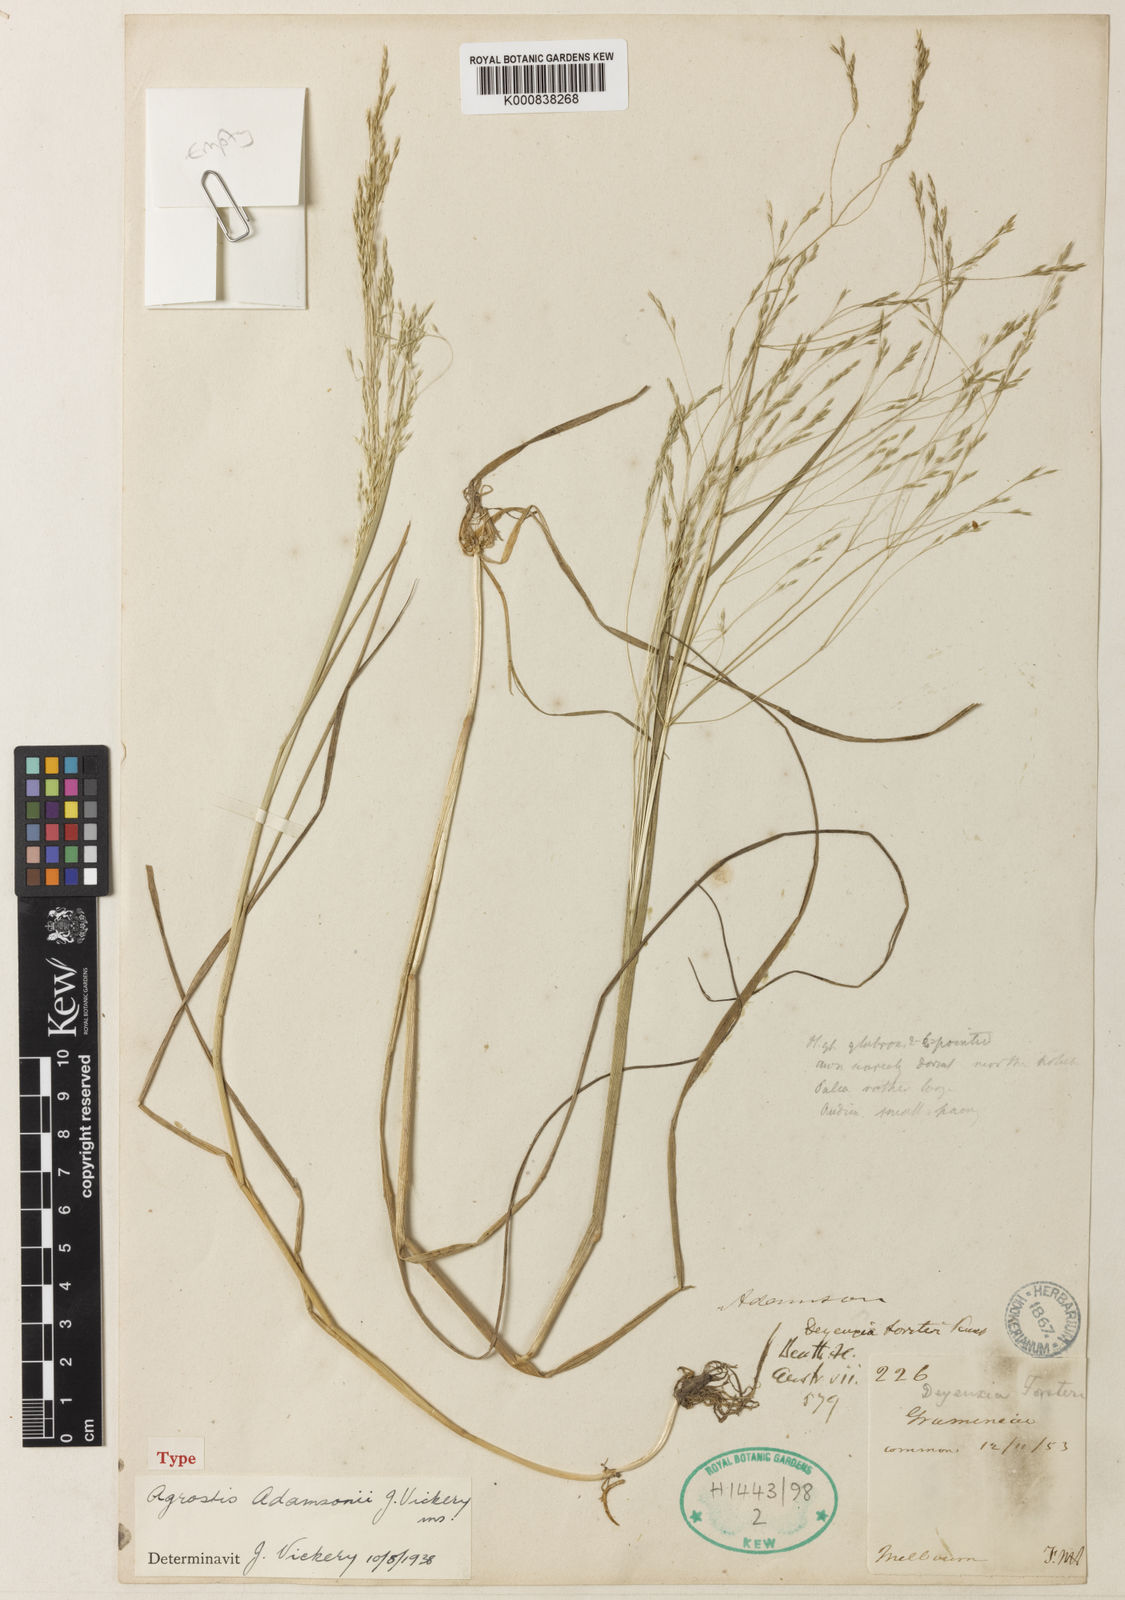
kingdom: Plantae
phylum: Tracheophyta
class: Liliopsida
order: Poales
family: Poaceae
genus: Lachnagrostis
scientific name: Lachnagrostis adamsonii
